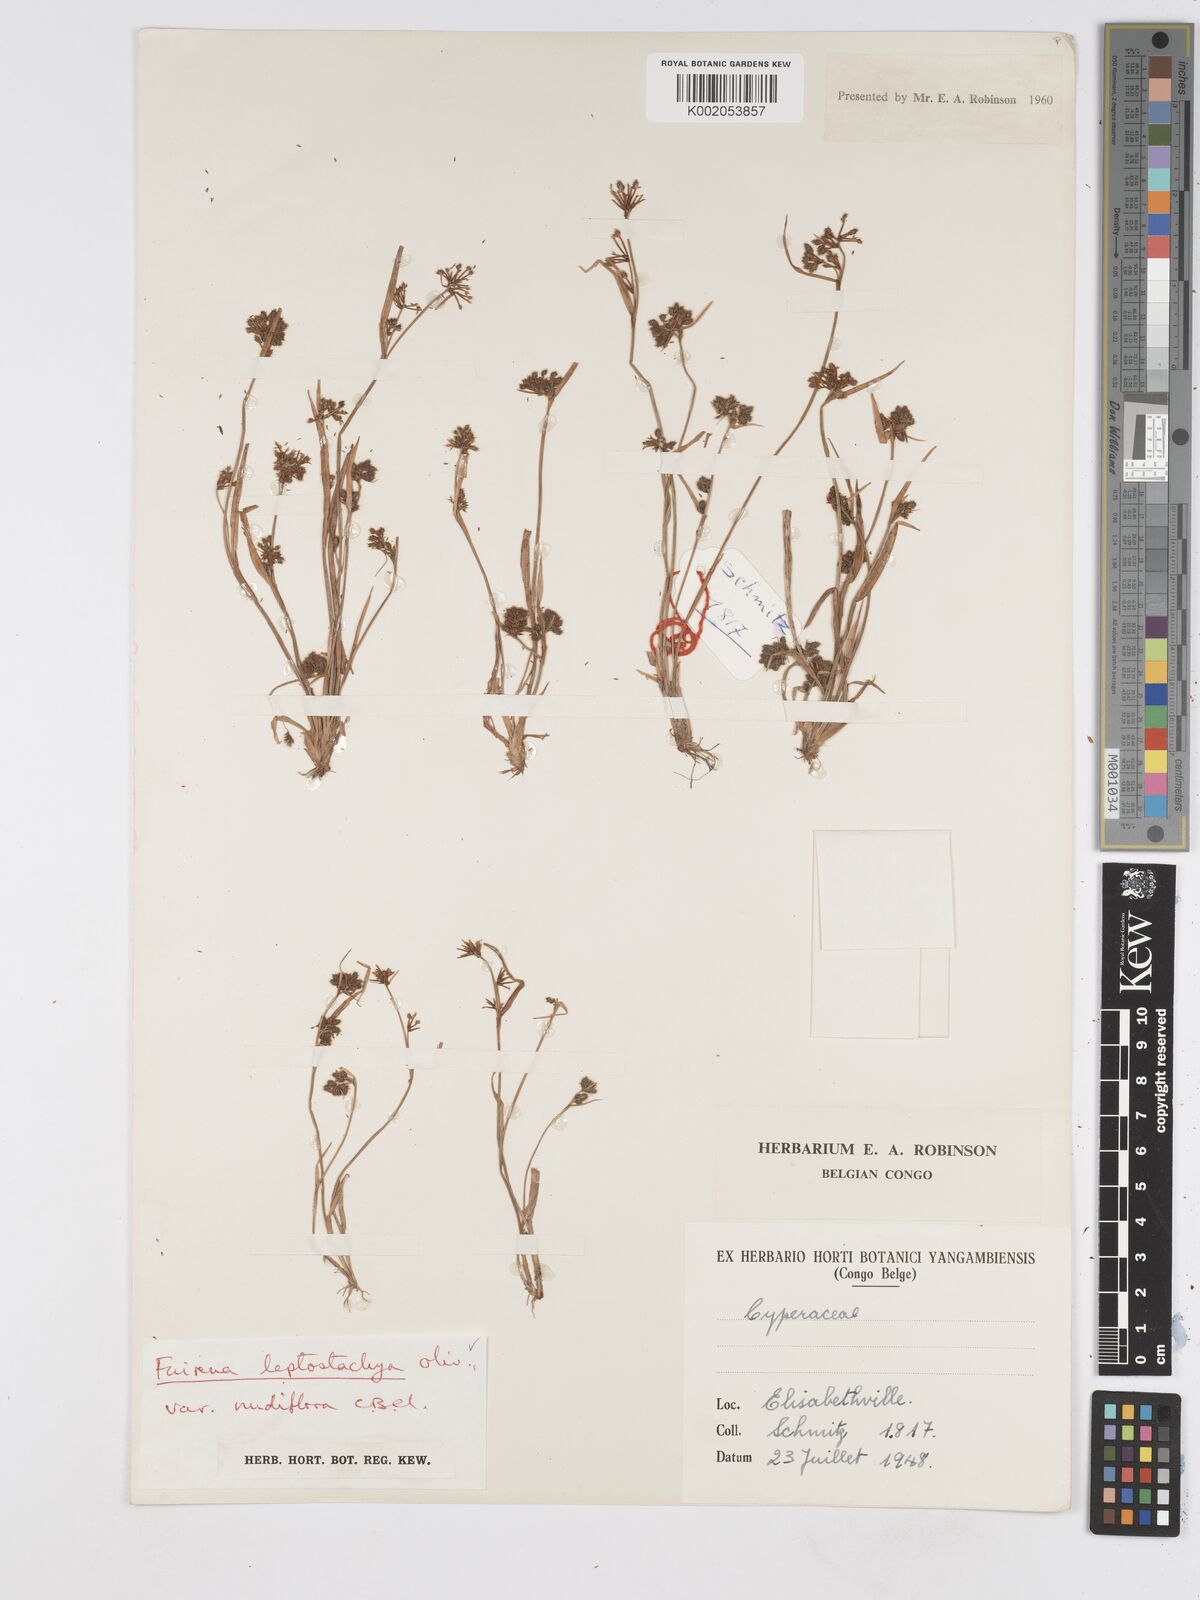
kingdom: Plantae
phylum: Tracheophyta
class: Liliopsida
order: Poales
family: Cyperaceae
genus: Fuirena
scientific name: Fuirena leptostachya
